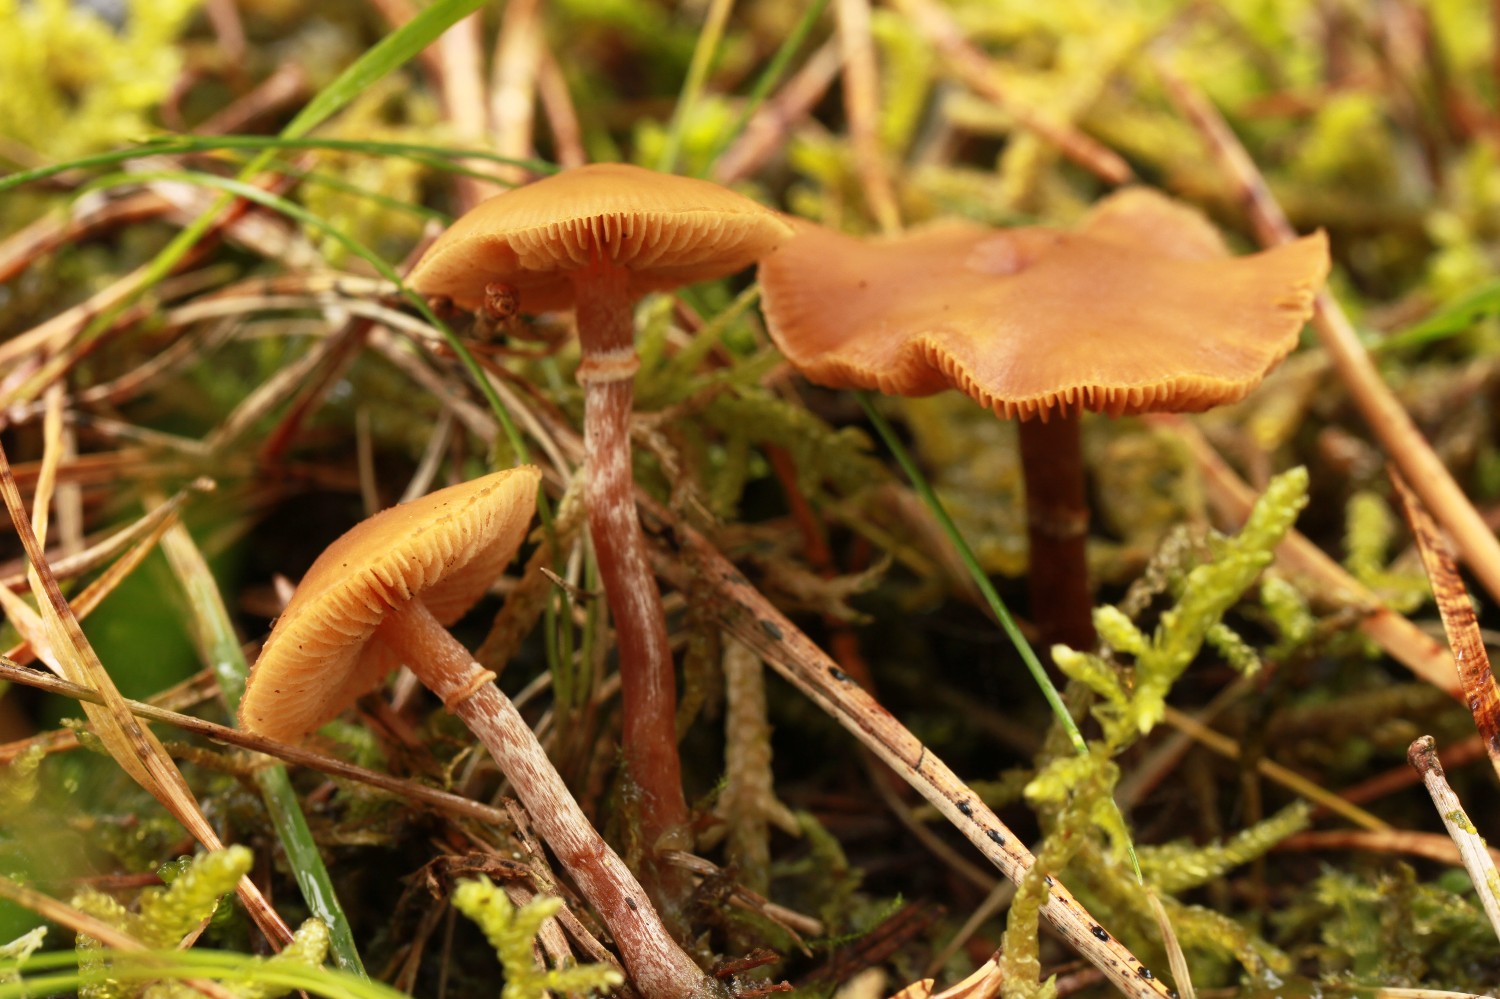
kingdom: Fungi
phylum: Basidiomycota
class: Agaricomycetes
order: Agaricales
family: Hymenogastraceae
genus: Galerina
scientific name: Galerina marginata
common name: randbæltet hjelmhat
